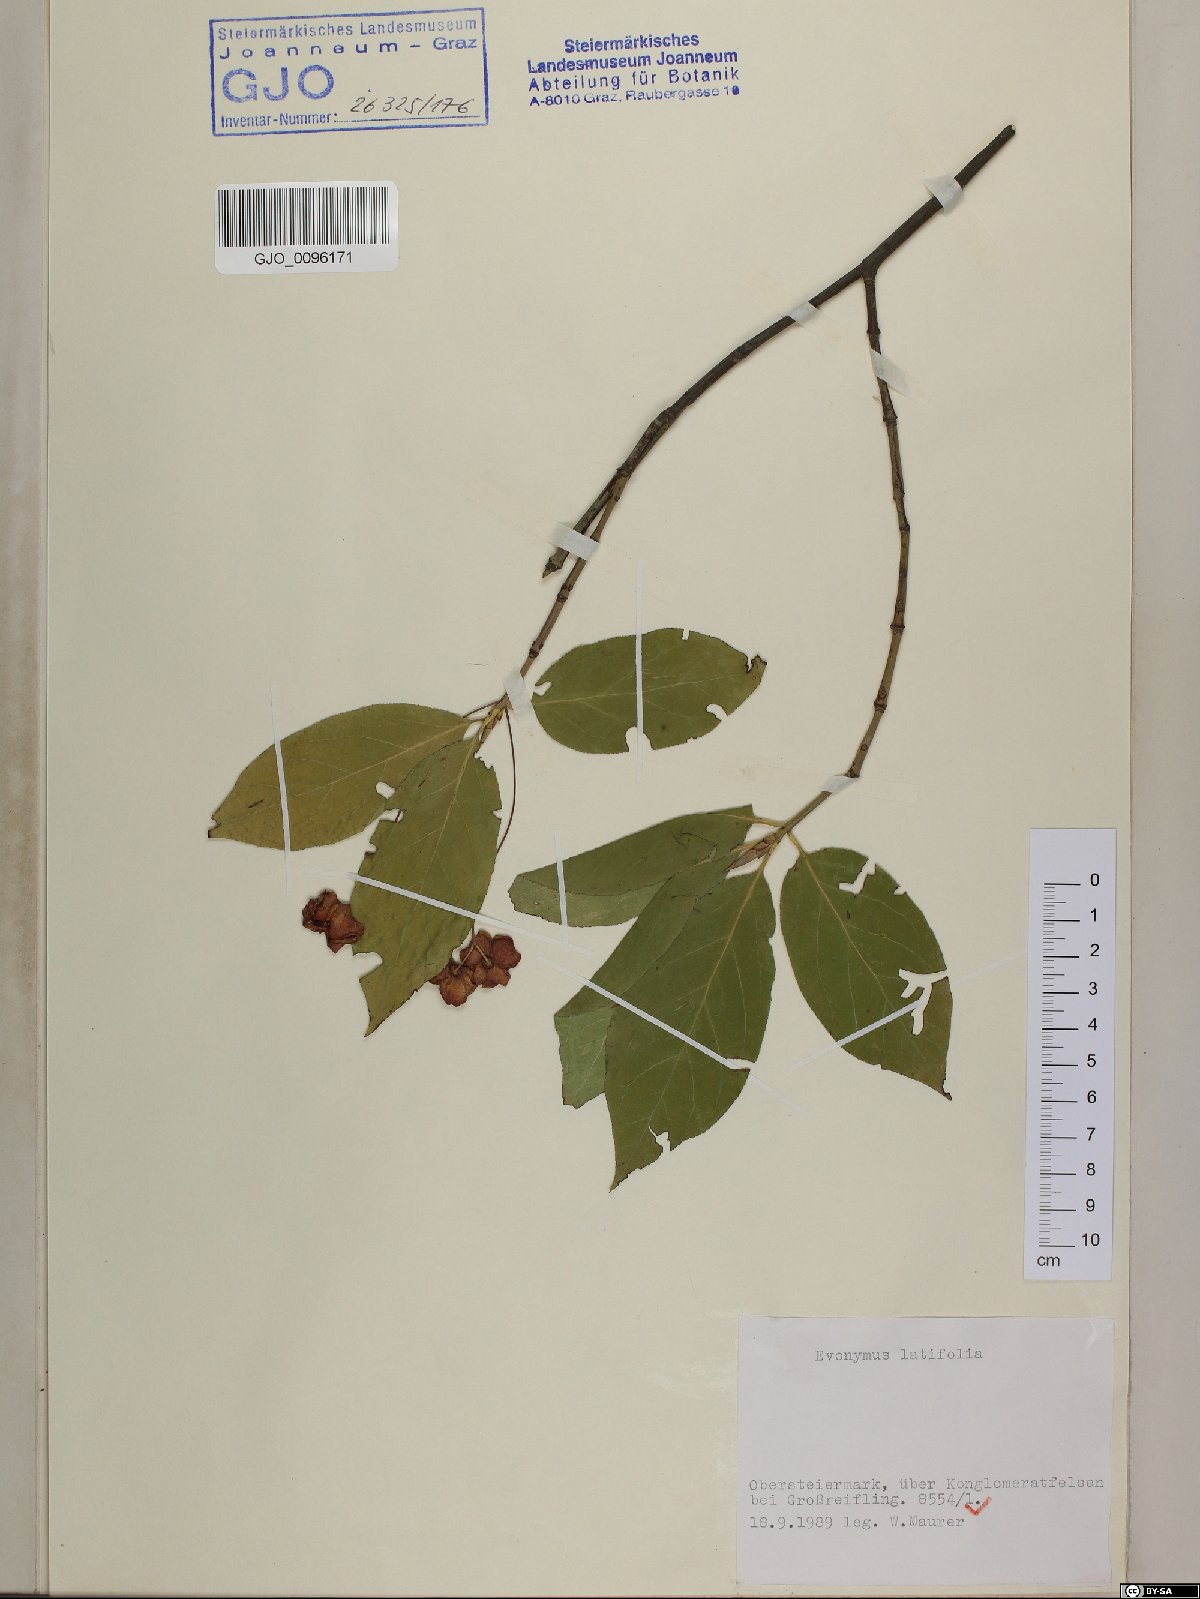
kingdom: Plantae
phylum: Tracheophyta
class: Magnoliopsida
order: Celastrales
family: Celastraceae
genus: Euonymus
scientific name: Euonymus latifolius
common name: Large-leaved spindle
